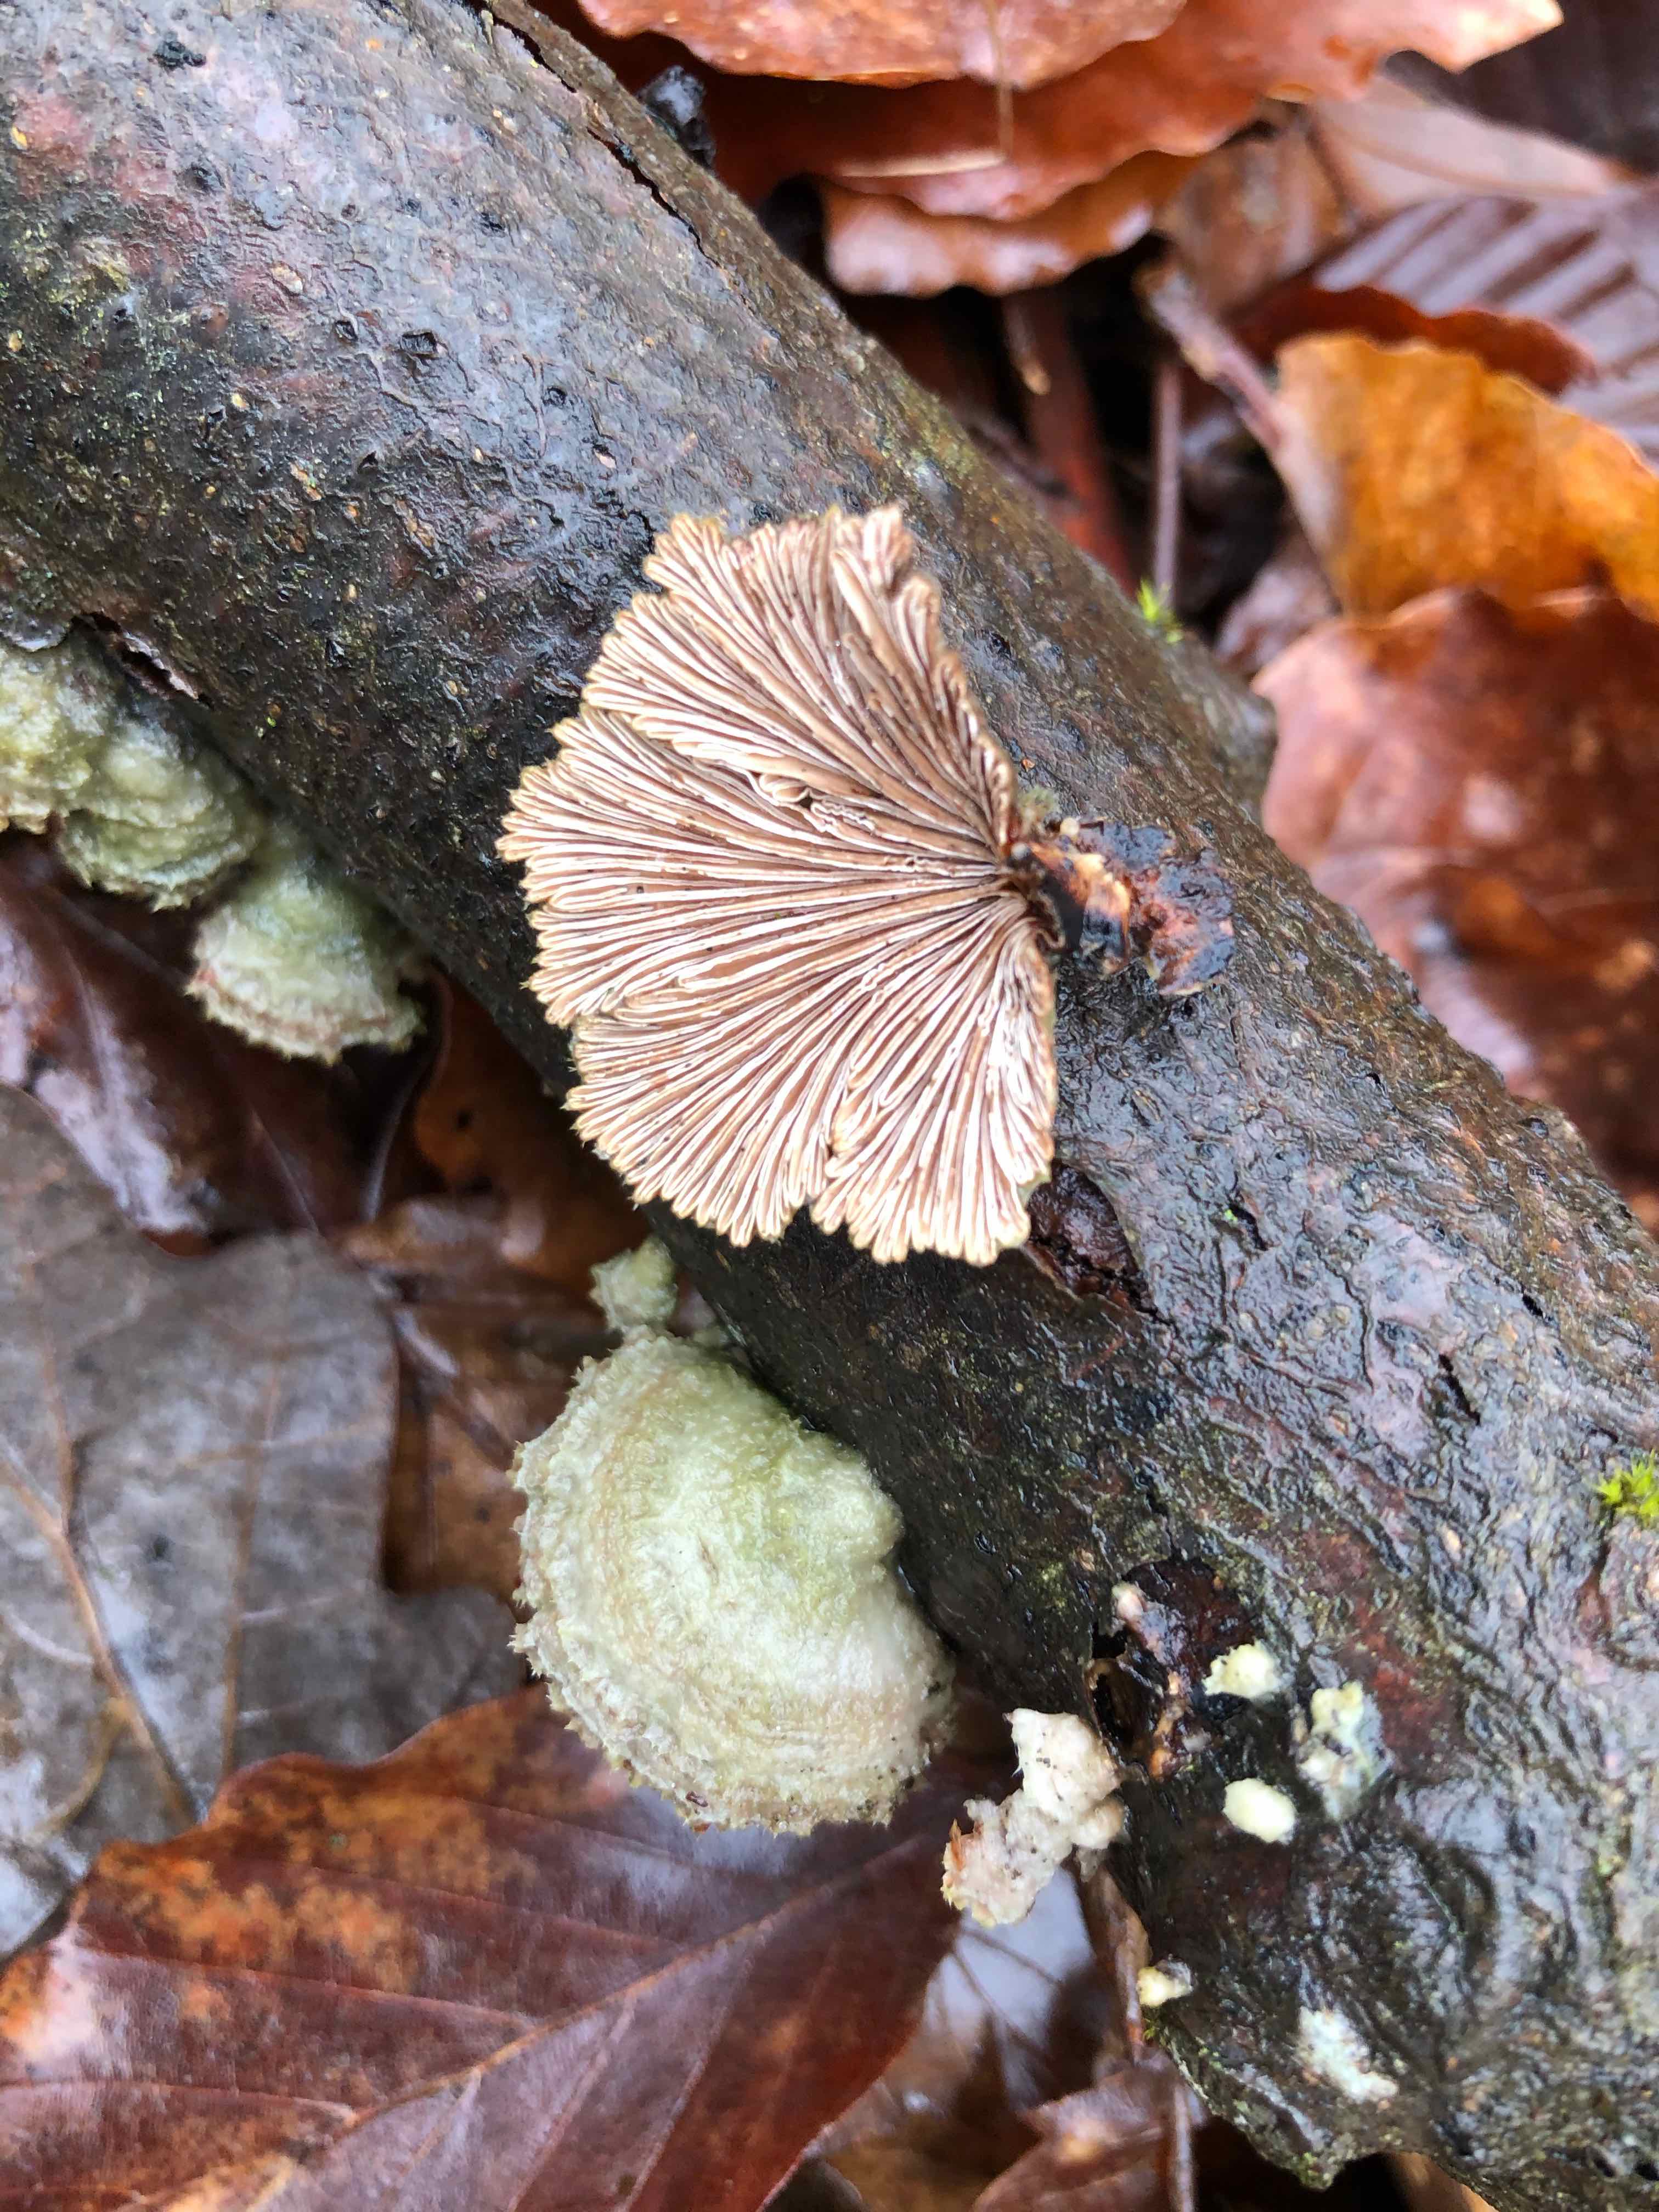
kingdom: Fungi
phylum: Basidiomycota
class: Agaricomycetes
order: Agaricales
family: Schizophyllaceae
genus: Schizophyllum
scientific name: Schizophyllum commune
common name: kløvblad
